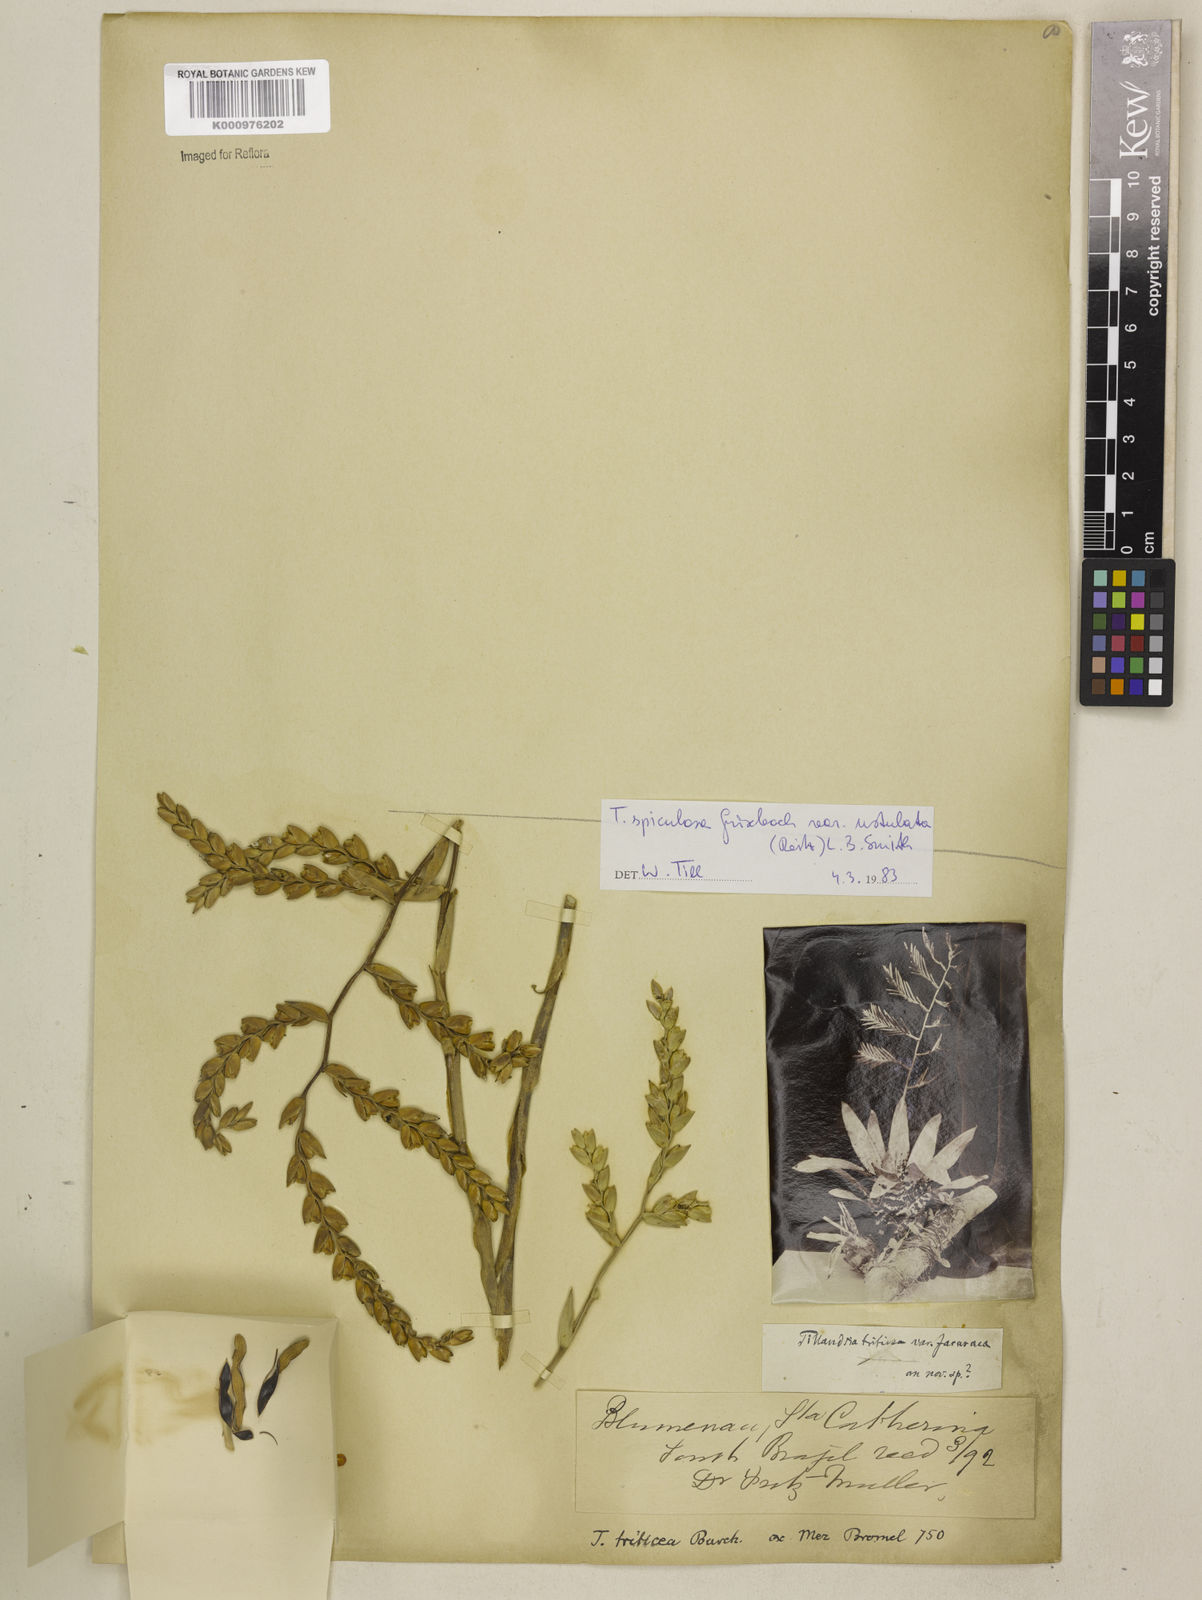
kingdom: Plantae
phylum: Tracheophyta
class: Liliopsida
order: Poales
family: Bromeliaceae
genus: Racinaea
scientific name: Racinaea spiculosa
